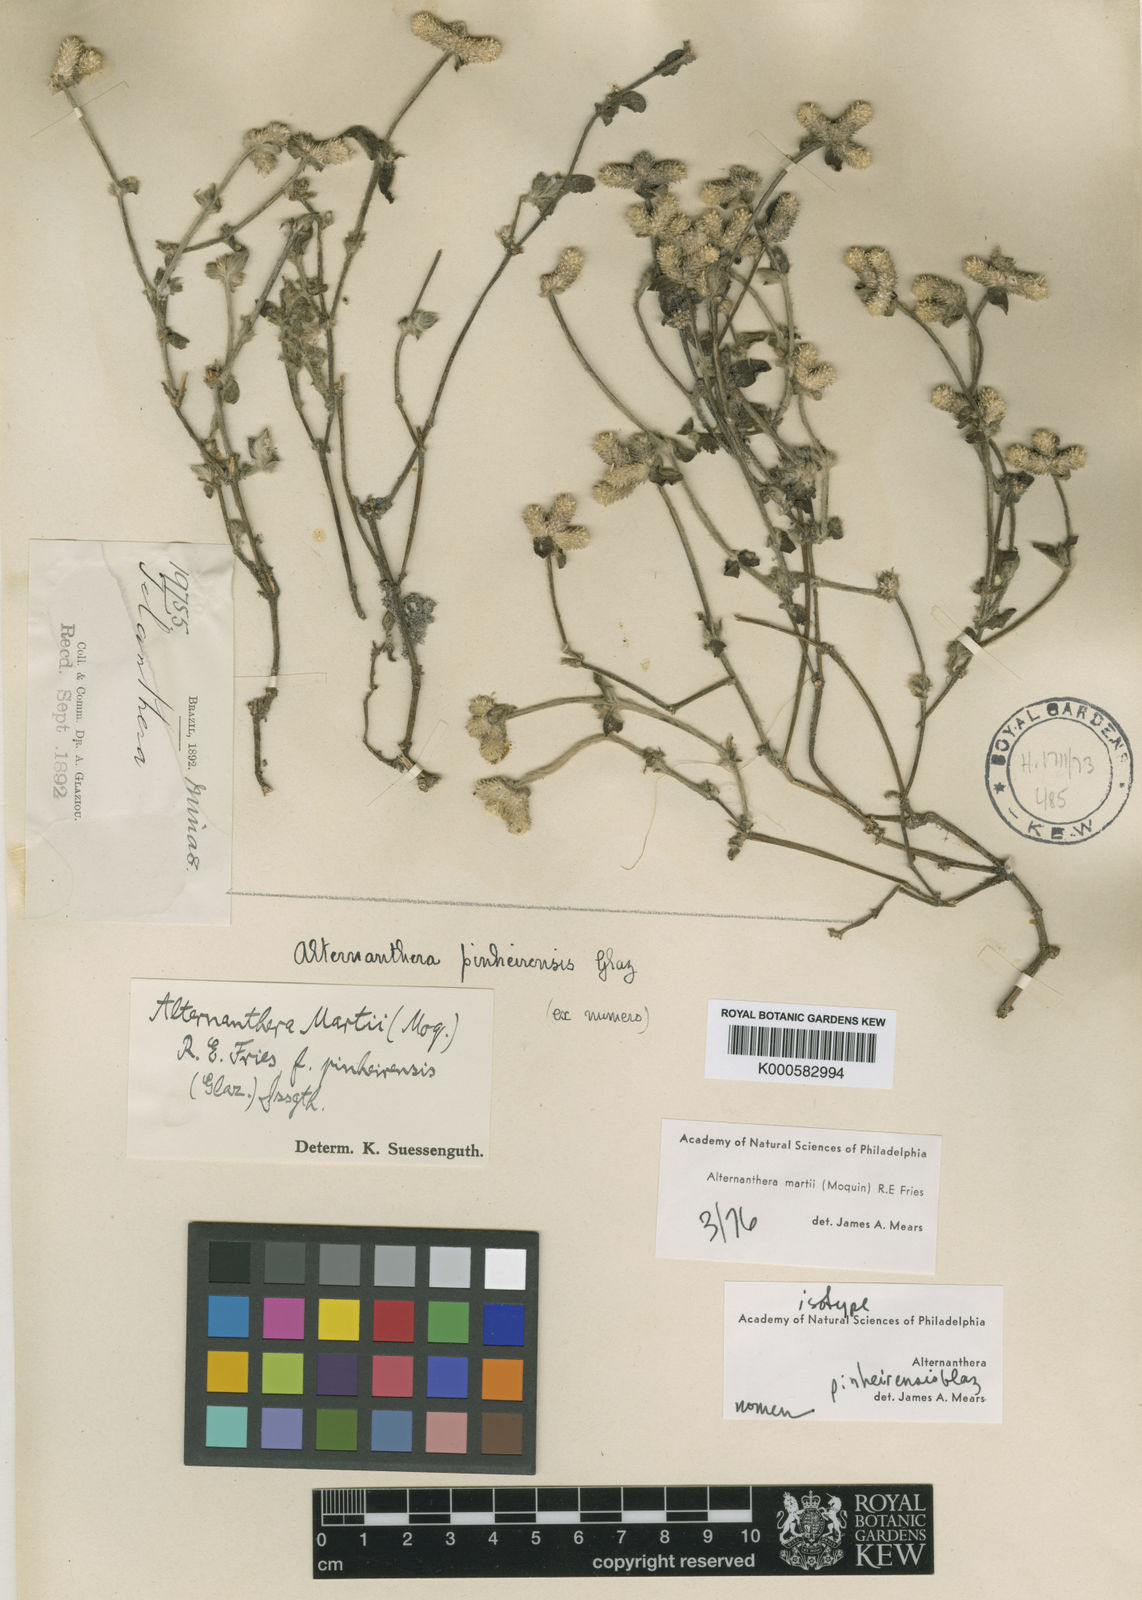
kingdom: Plantae
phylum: Tracheophyta
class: Magnoliopsida
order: Caryophyllales
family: Amaranthaceae
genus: Alternanthera
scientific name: Alternanthera martii
